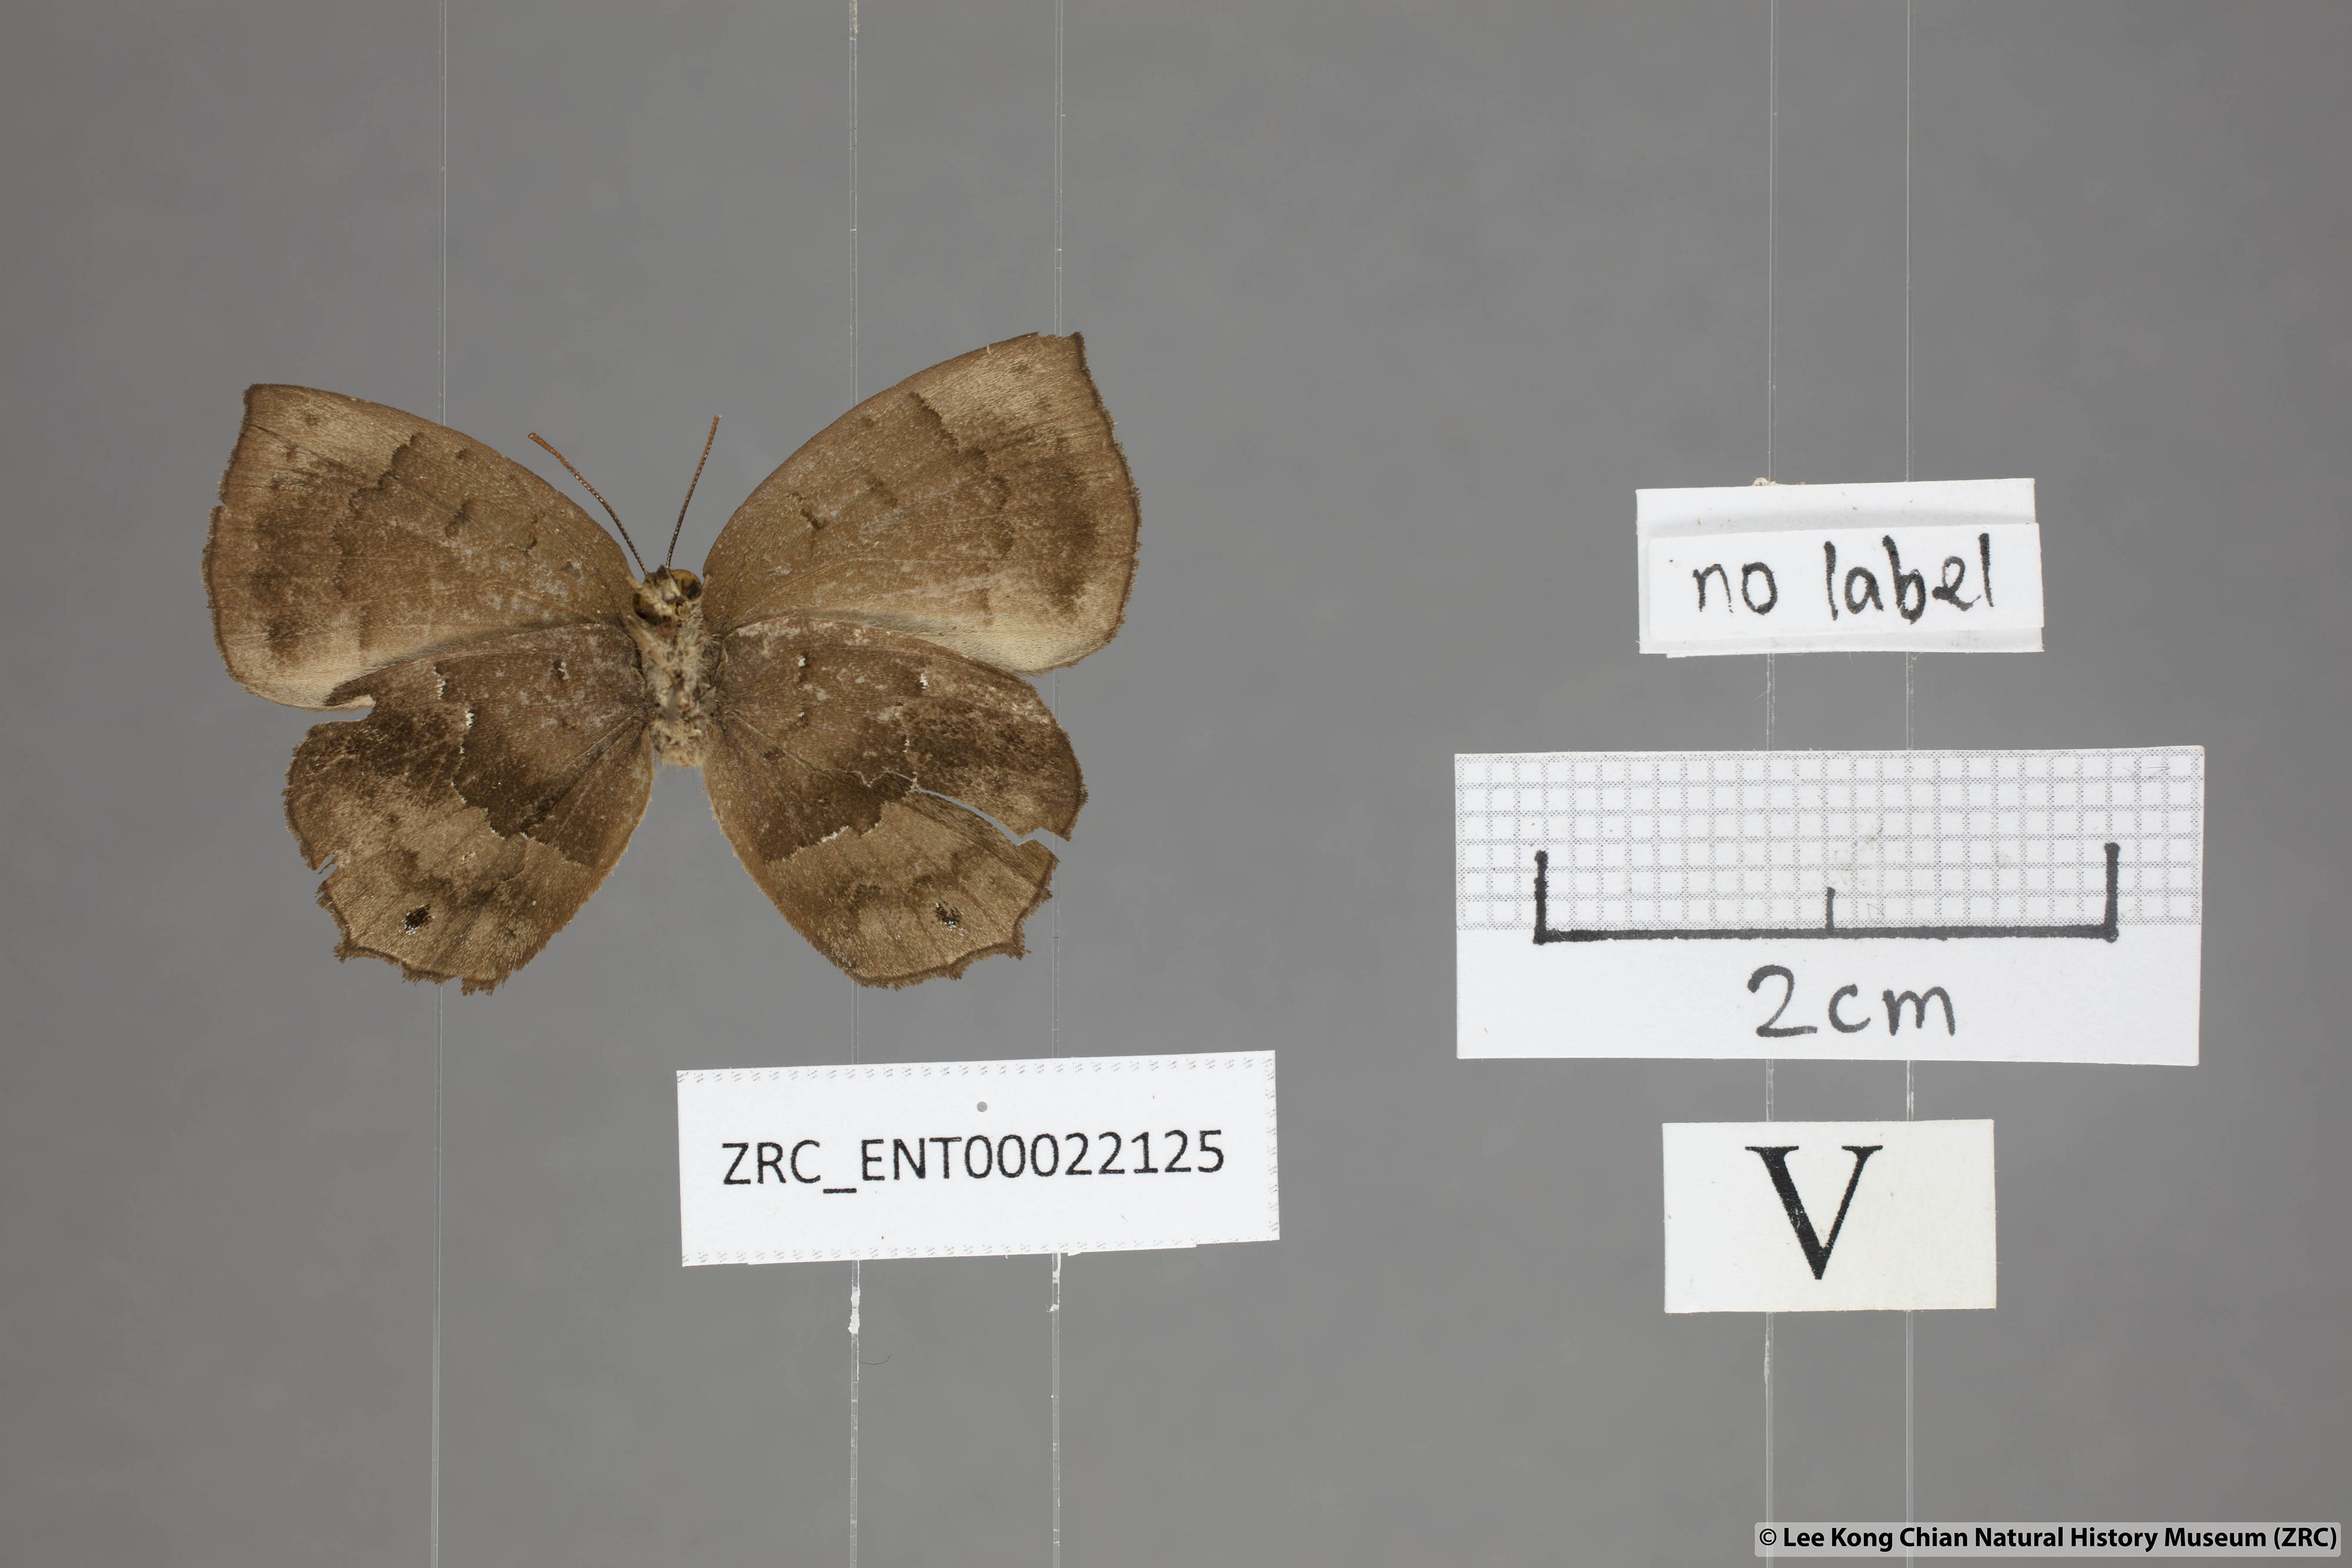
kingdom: Animalia
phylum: Arthropoda
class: Insecta
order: Lepidoptera
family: Lycaenidae
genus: Surendra
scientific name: Surendra florimel
